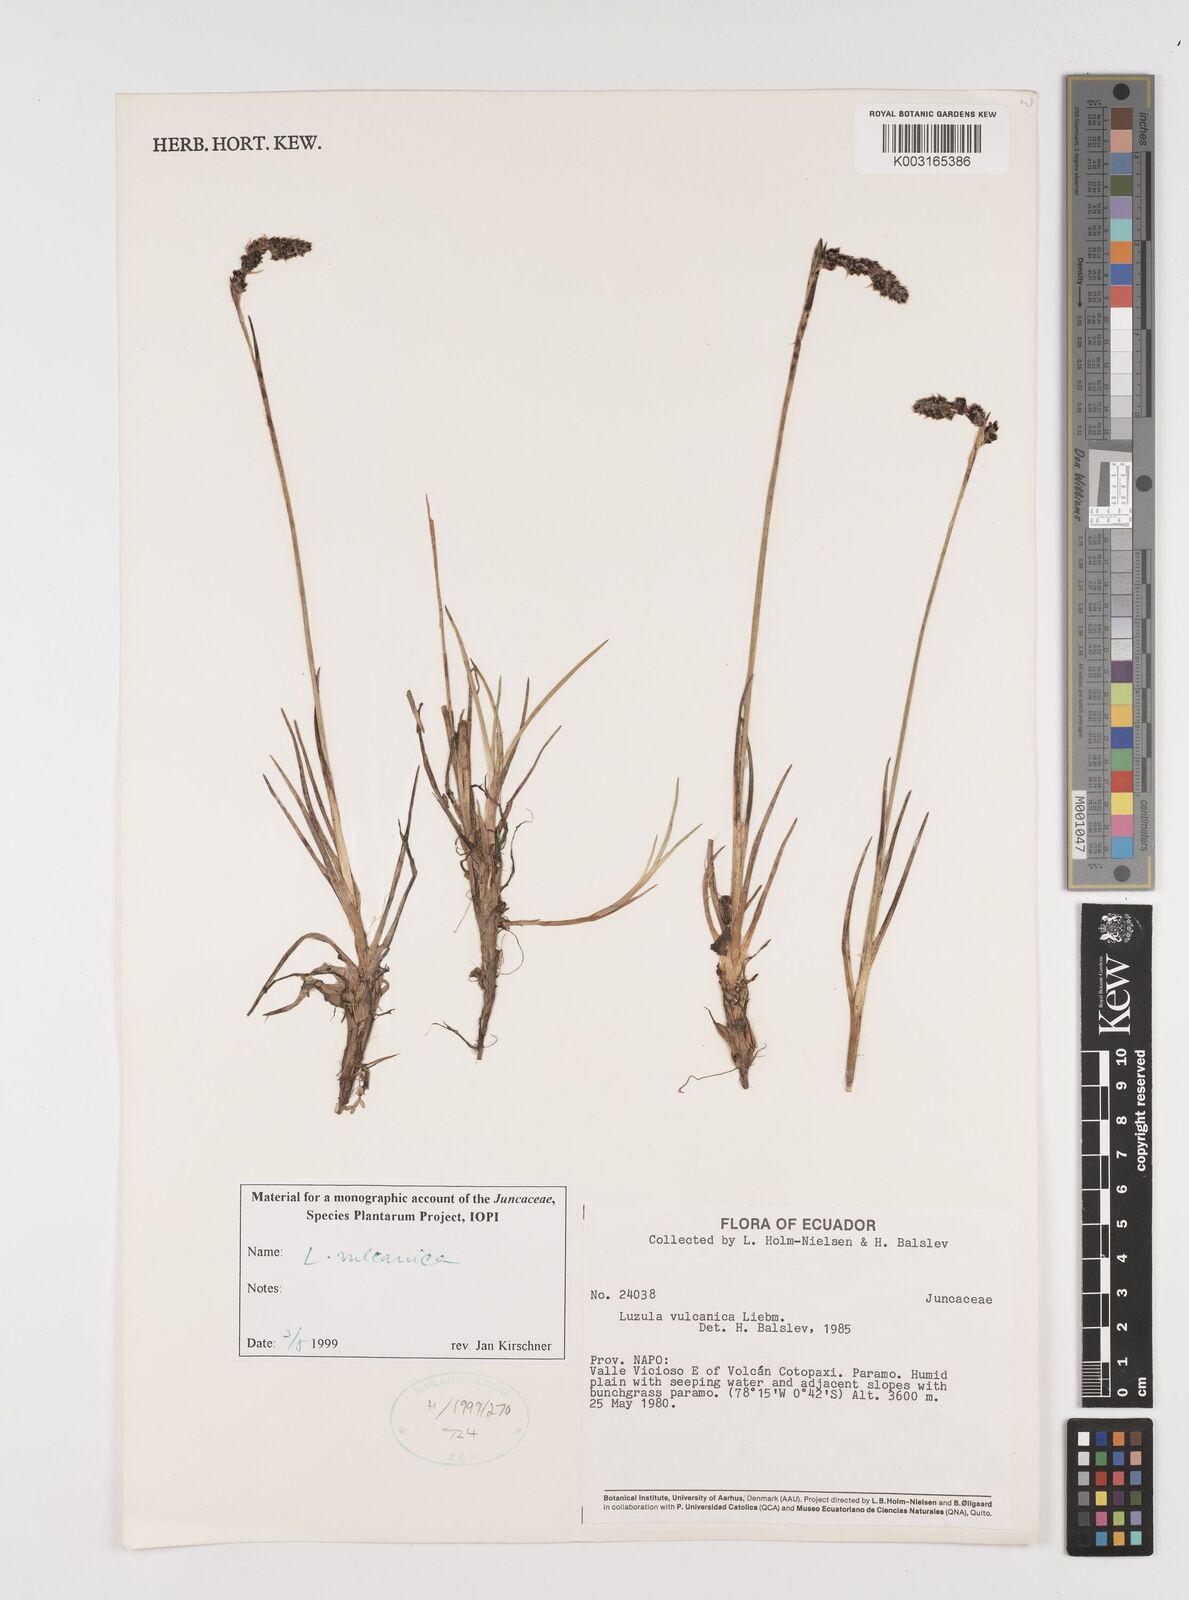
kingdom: Plantae
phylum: Tracheophyta
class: Liliopsida
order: Poales
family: Juncaceae
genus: Luzula
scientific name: Luzula vulcanica
